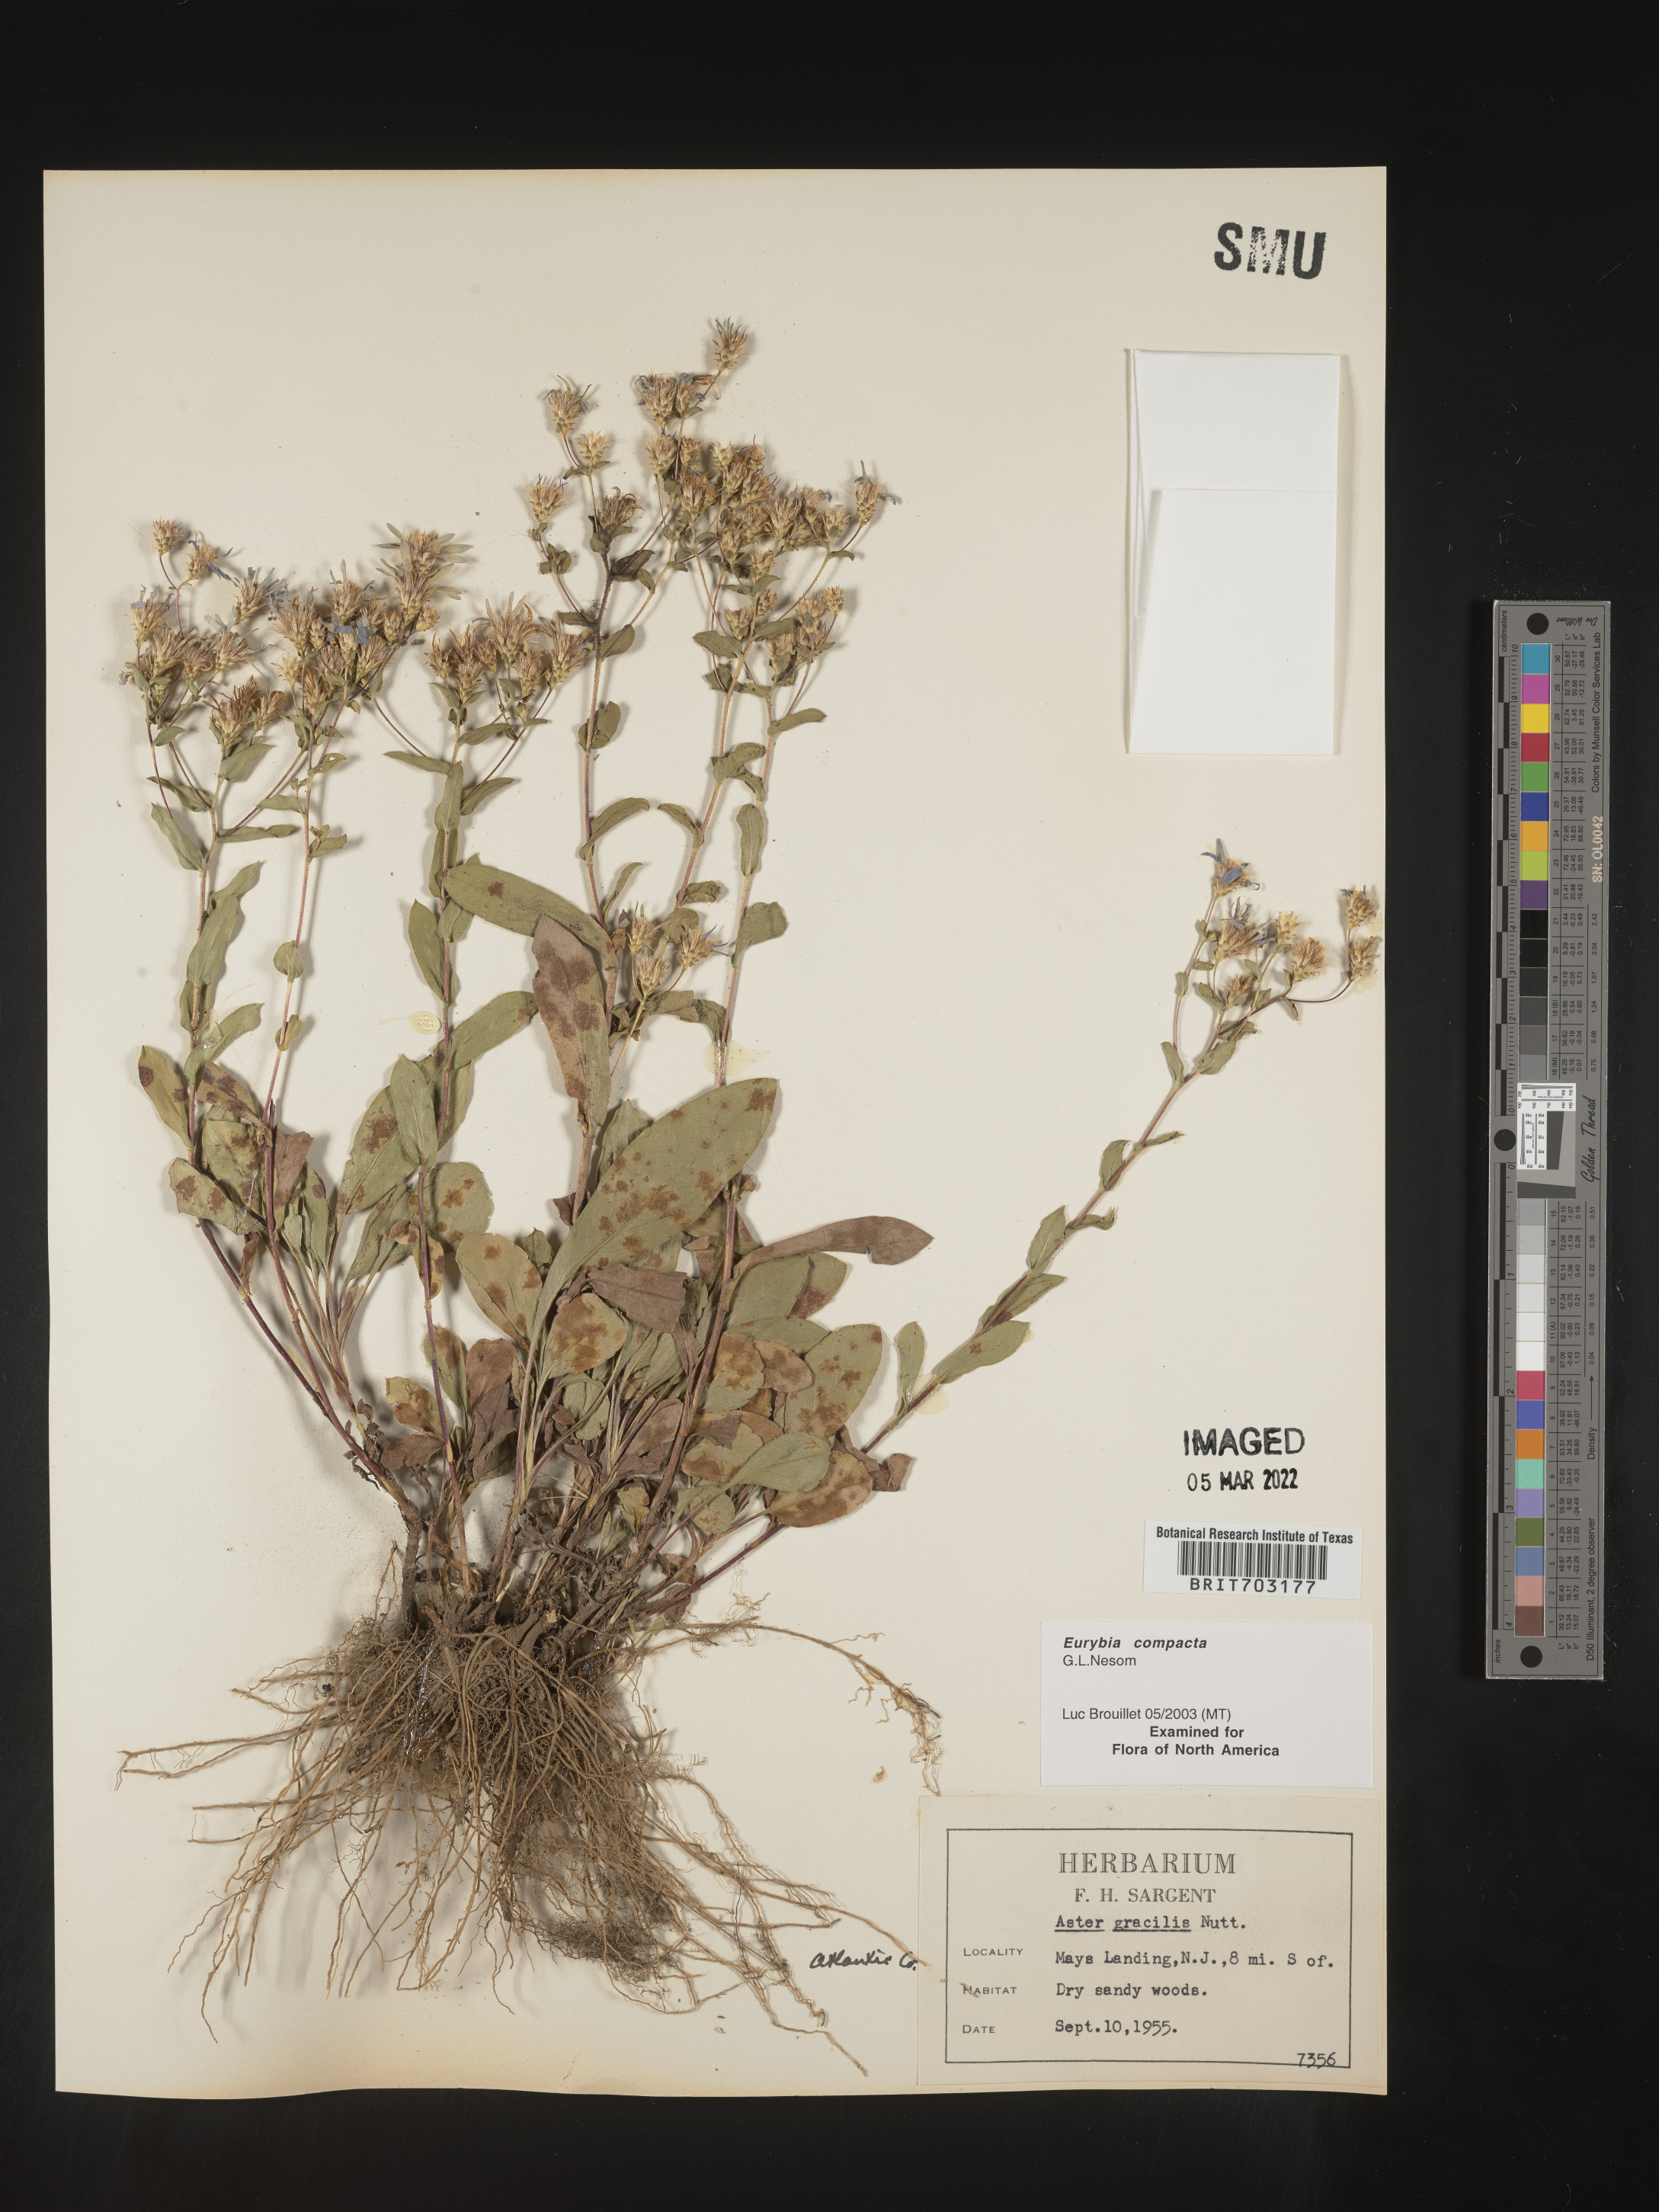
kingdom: Plantae
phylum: Tracheophyta
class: Magnoliopsida
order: Asterales
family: Asteraceae
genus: Eurybia
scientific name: Eurybia compacta
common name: Slender aster
